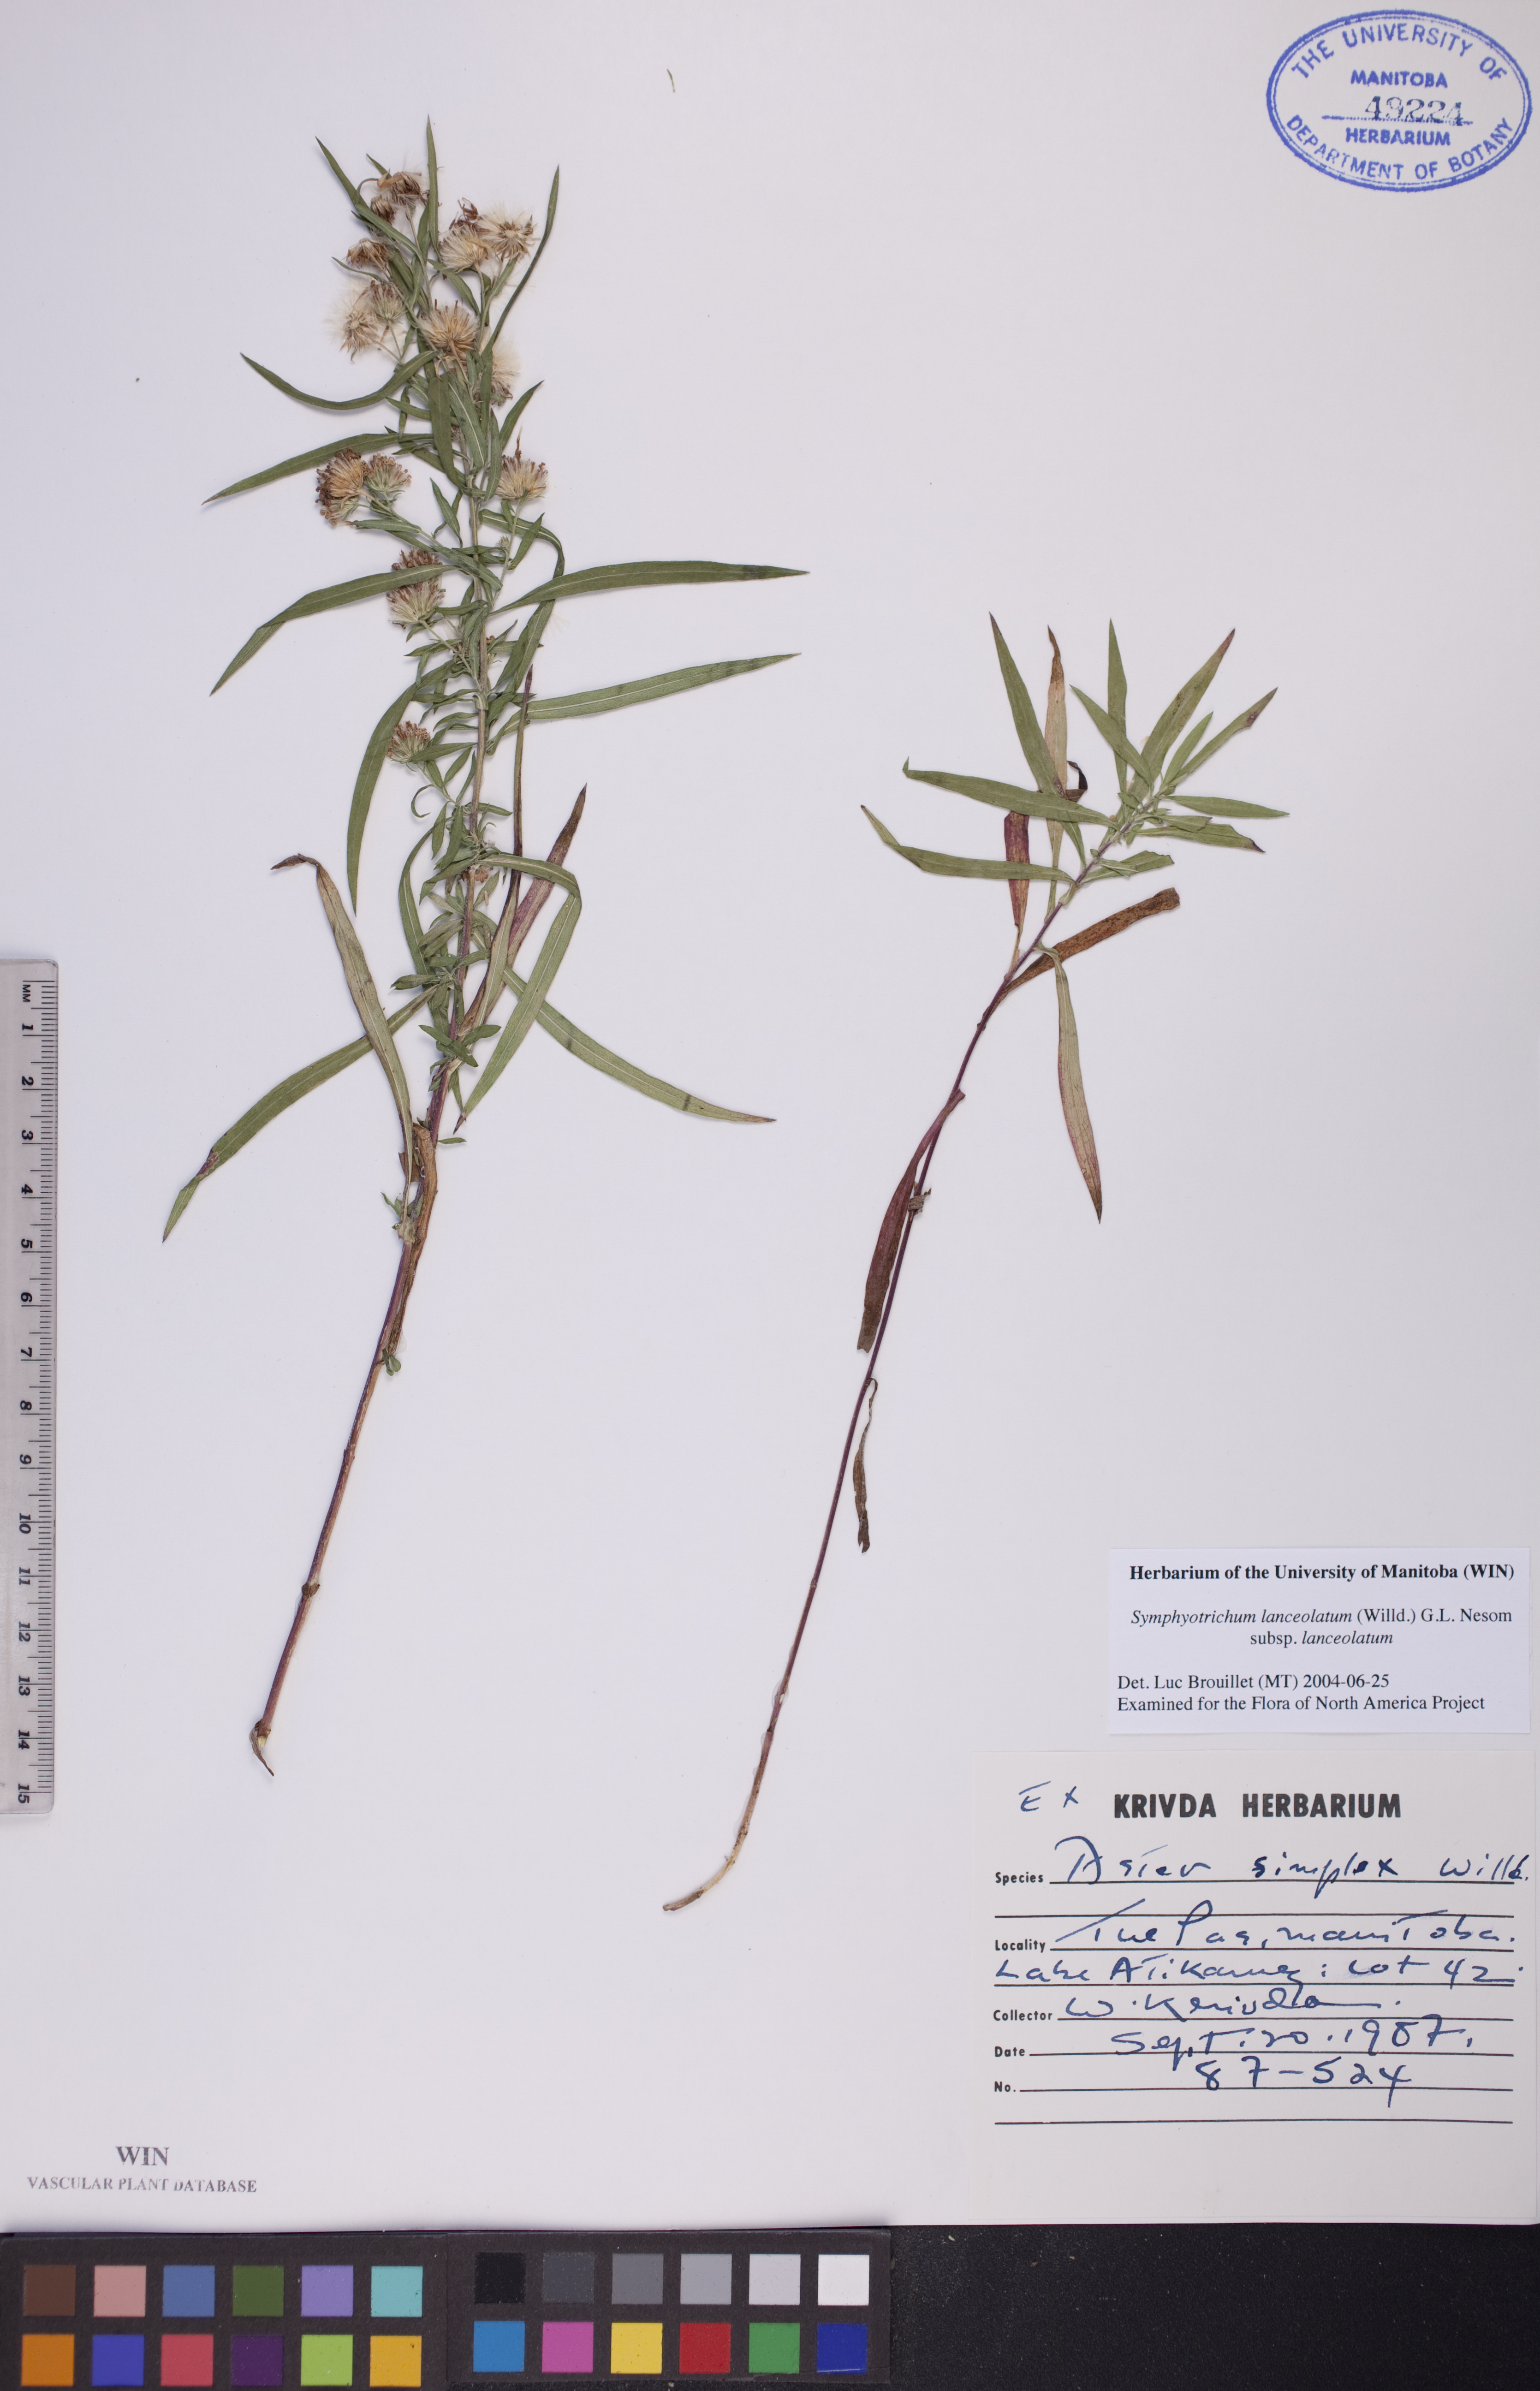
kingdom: Plantae
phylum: Tracheophyta
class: Magnoliopsida
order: Asterales
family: Asteraceae
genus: Symphyotrichum
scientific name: Symphyotrichum lanceolatum
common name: Panicled aster
